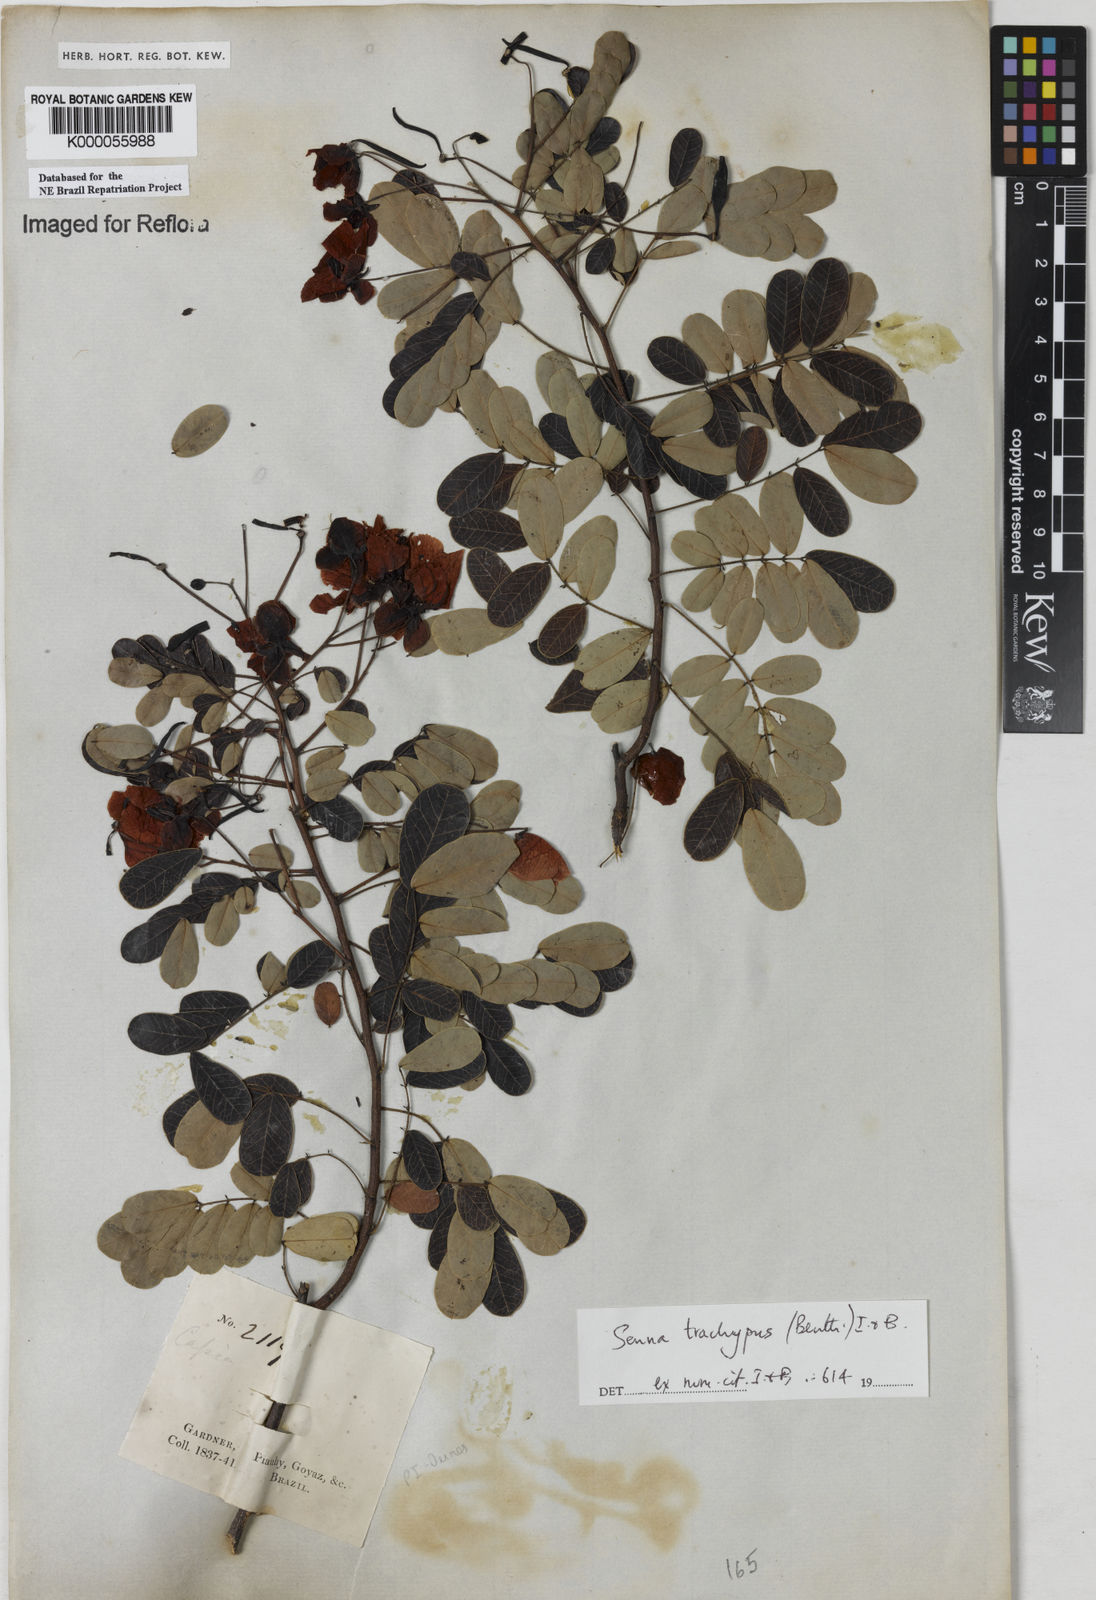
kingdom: Plantae
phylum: Tracheophyta
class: Magnoliopsida
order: Fabales
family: Fabaceae
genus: Senna
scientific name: Senna trachypus
